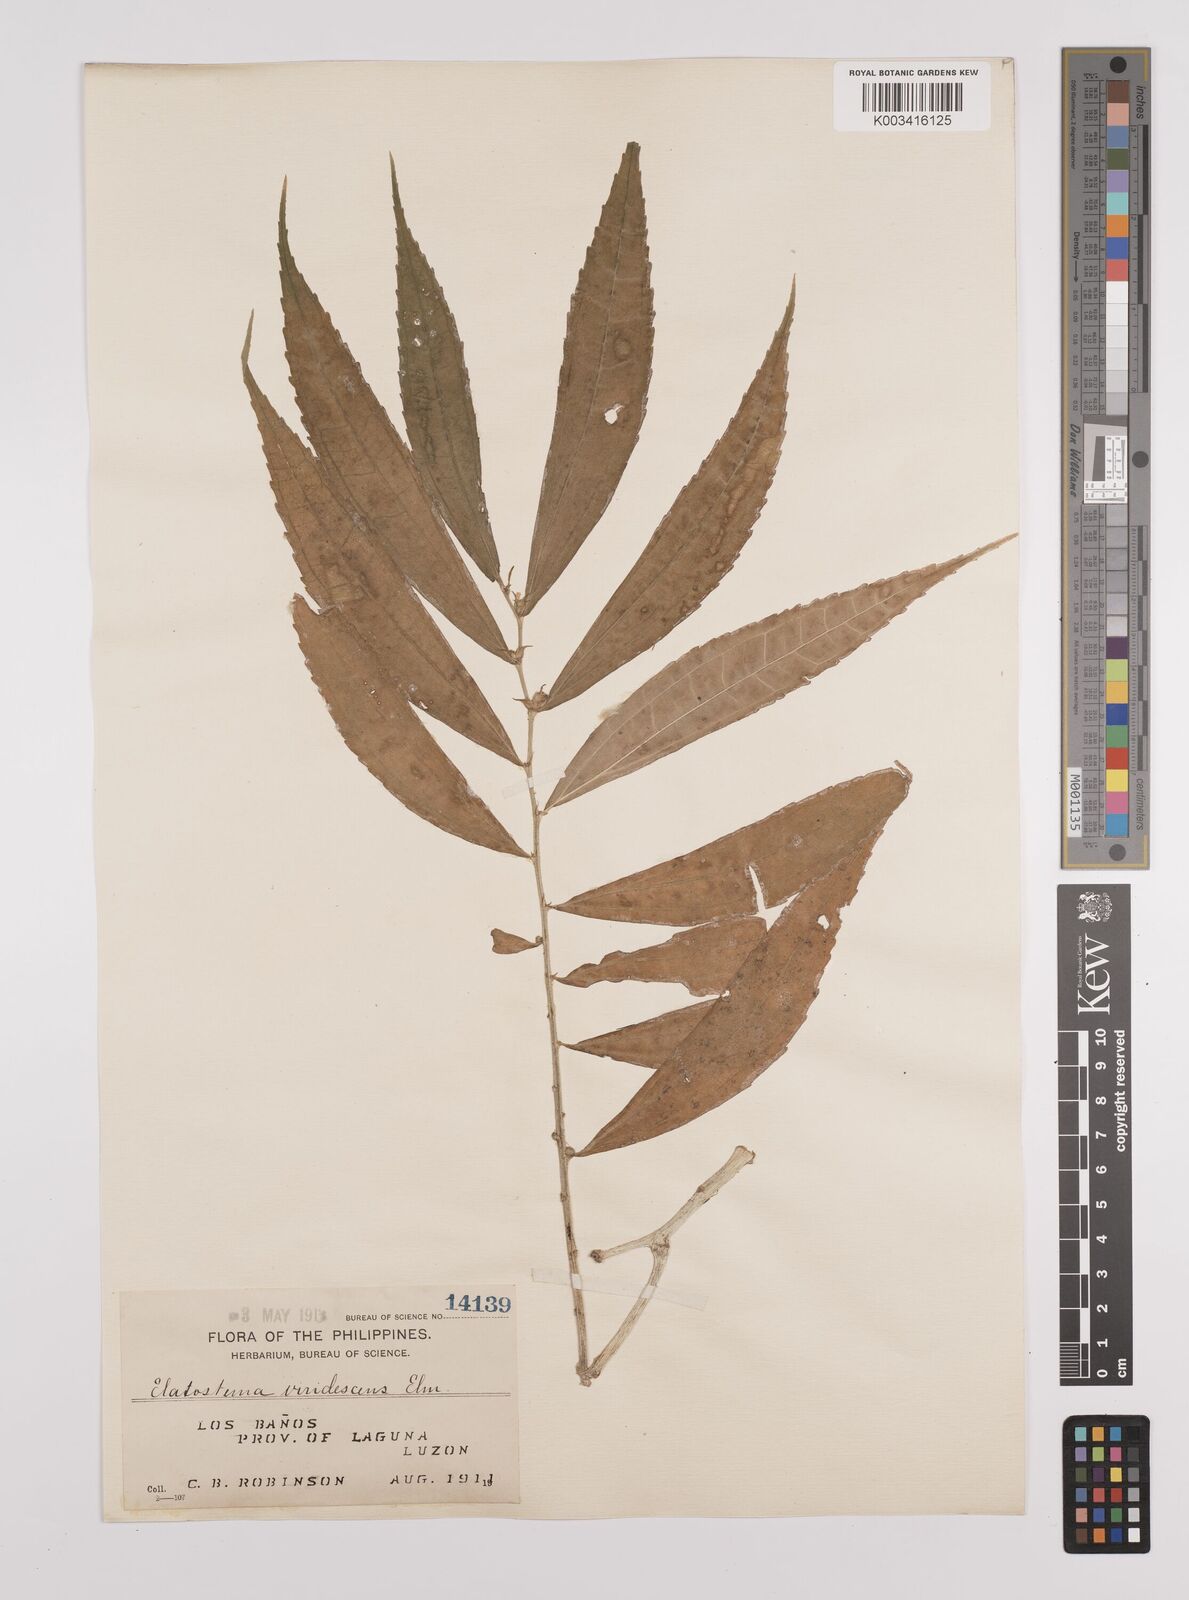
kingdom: Plantae
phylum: Tracheophyta
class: Magnoliopsida
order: Rosales
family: Urticaceae
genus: Elatostema
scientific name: Elatostema viridescens
